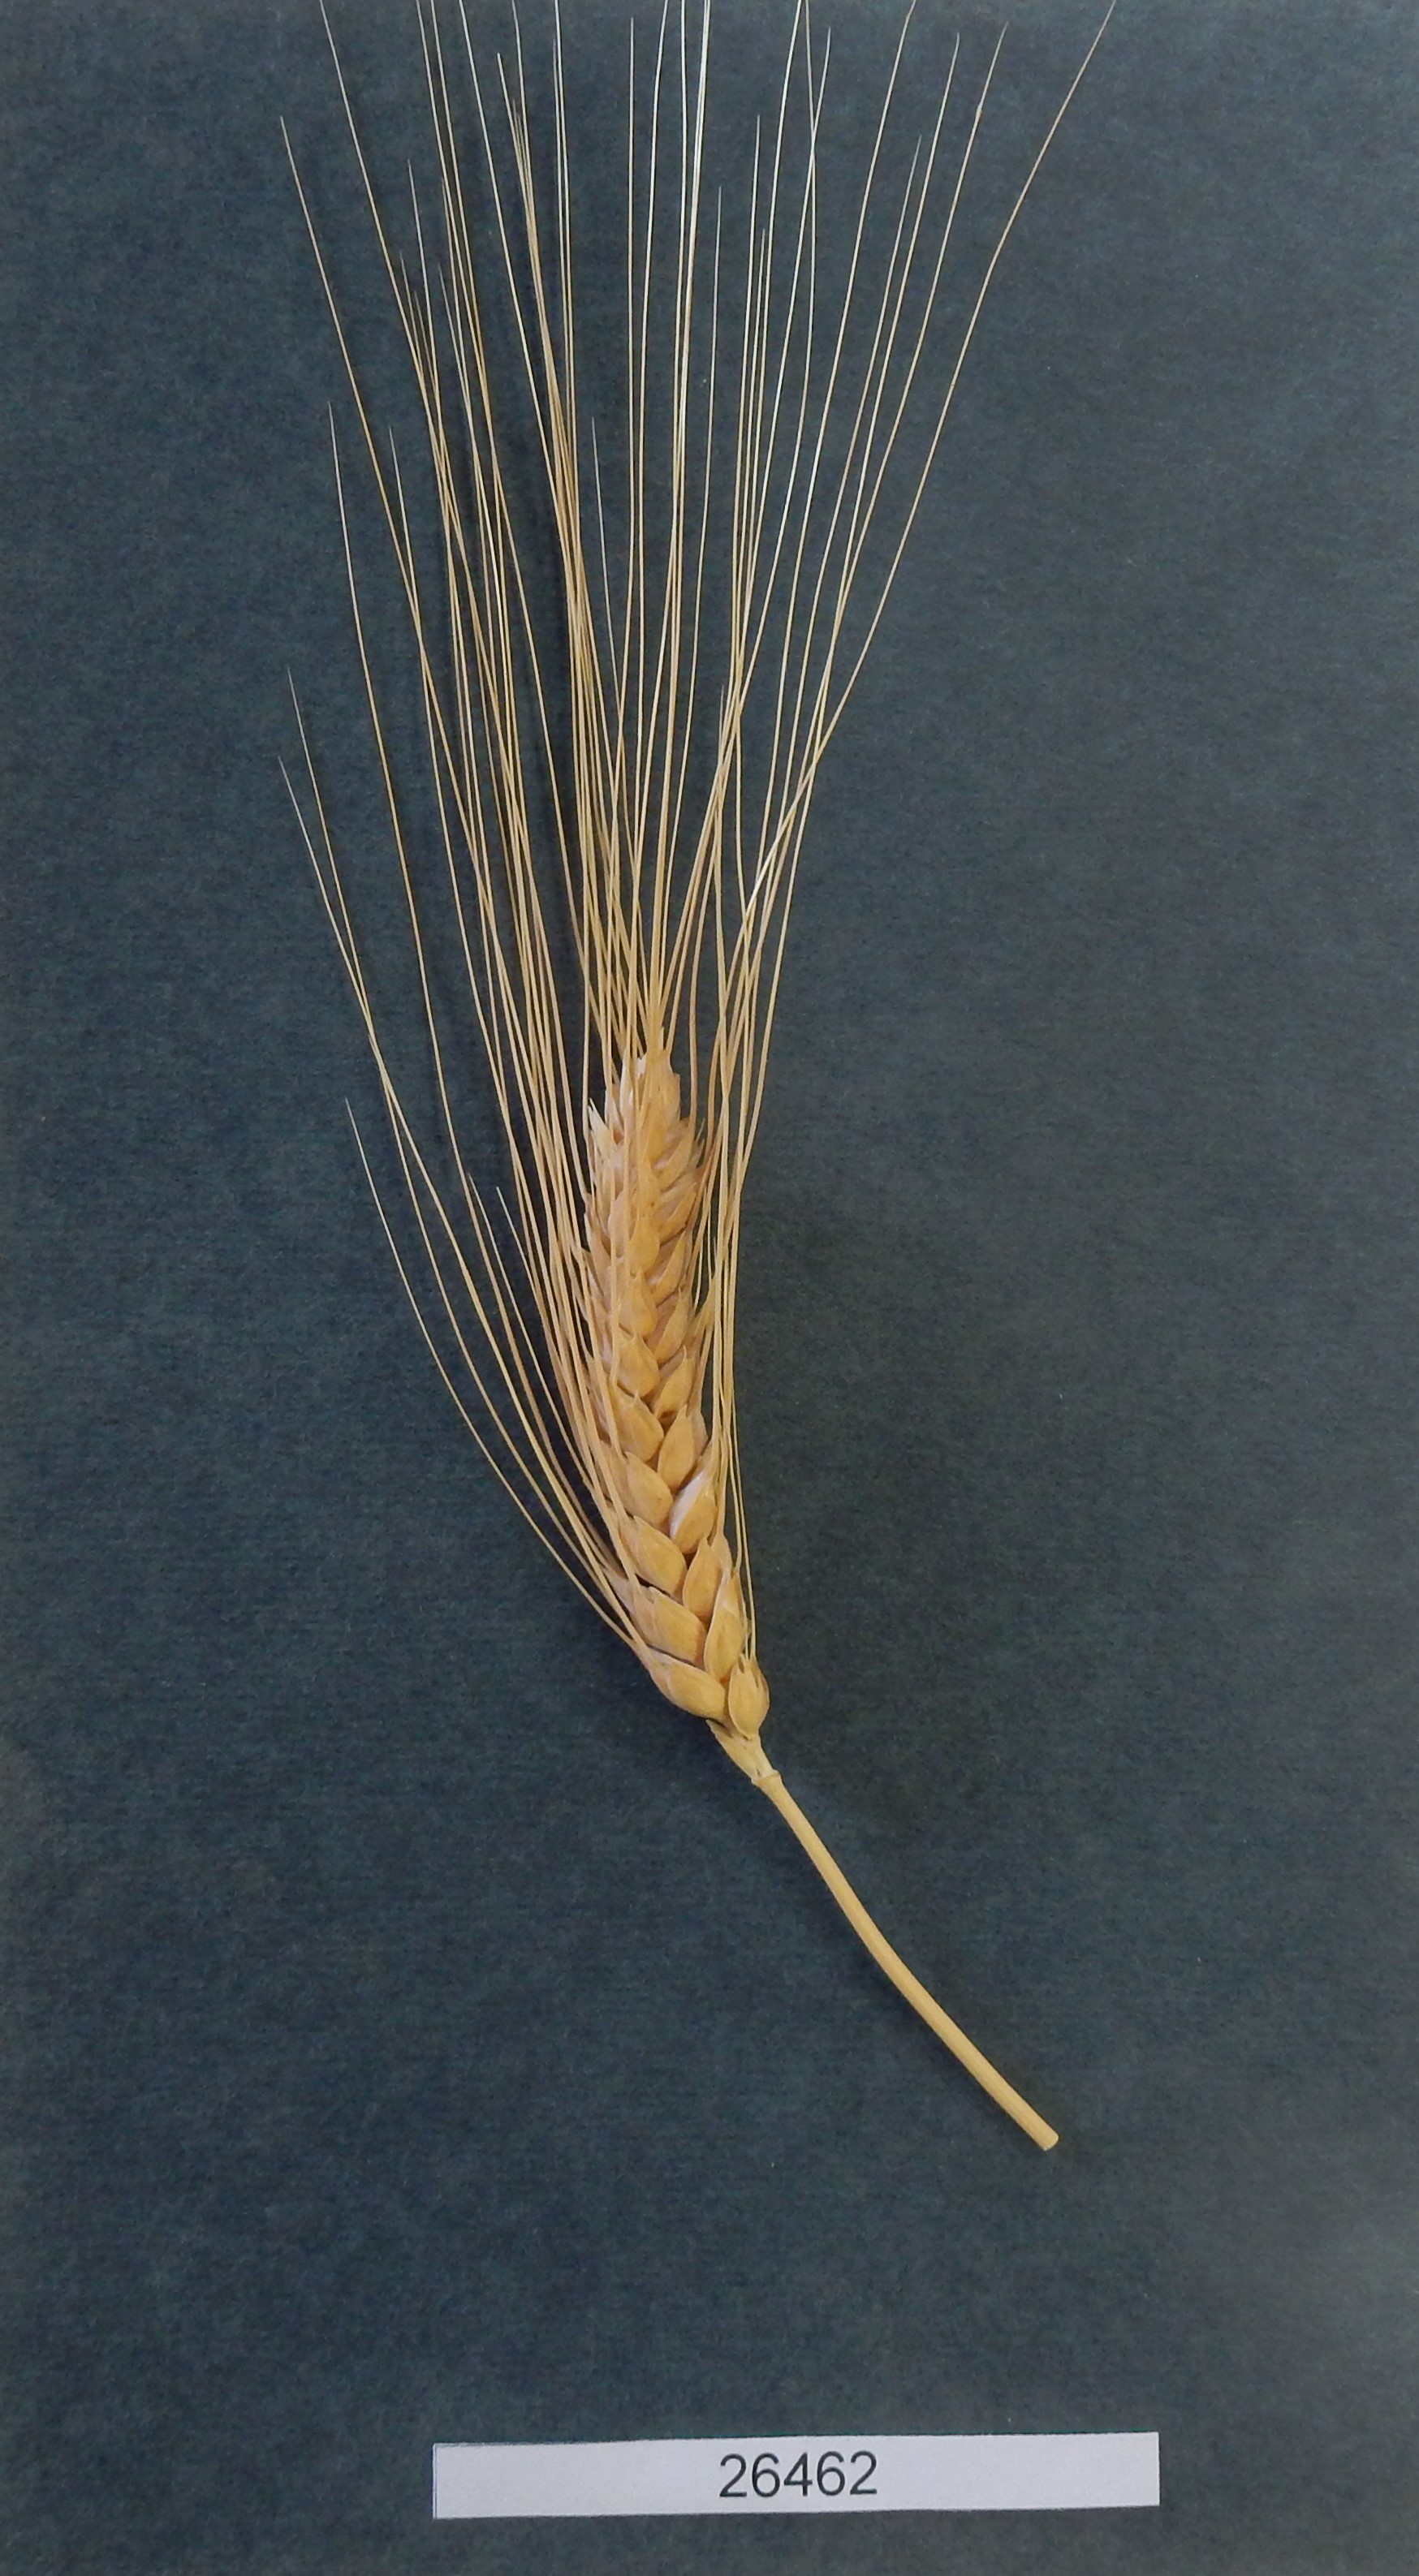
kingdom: Plantae
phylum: Tracheophyta
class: Liliopsida
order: Poales
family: Poaceae
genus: Triticum
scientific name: Triticum turgidum
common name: Wheat
